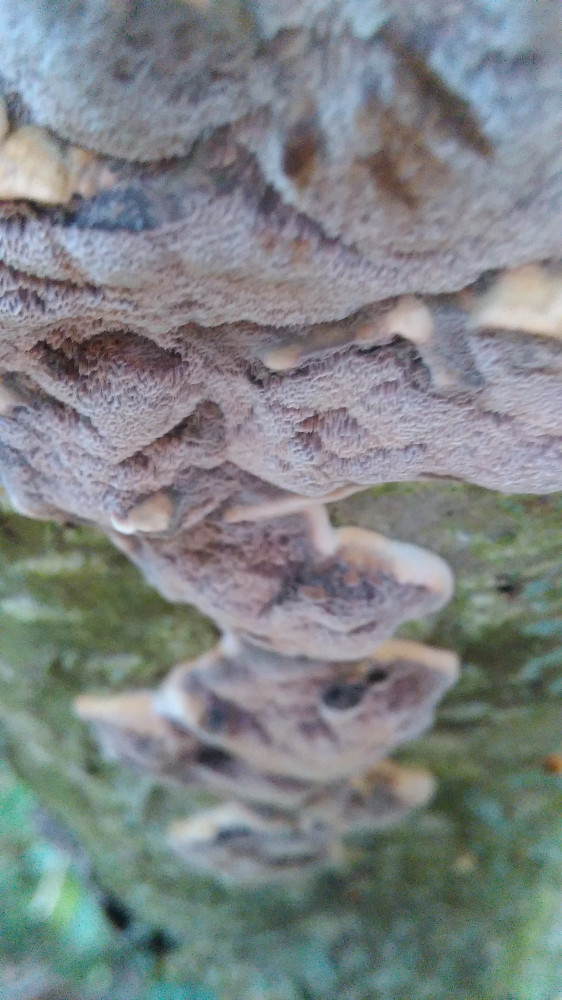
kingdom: Fungi
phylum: Basidiomycota
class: Agaricomycetes
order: Hymenochaetales
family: Hymenochaetaceae
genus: Xanthoporia
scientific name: Xanthoporia radiata
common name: elle-spejlporesvamp
